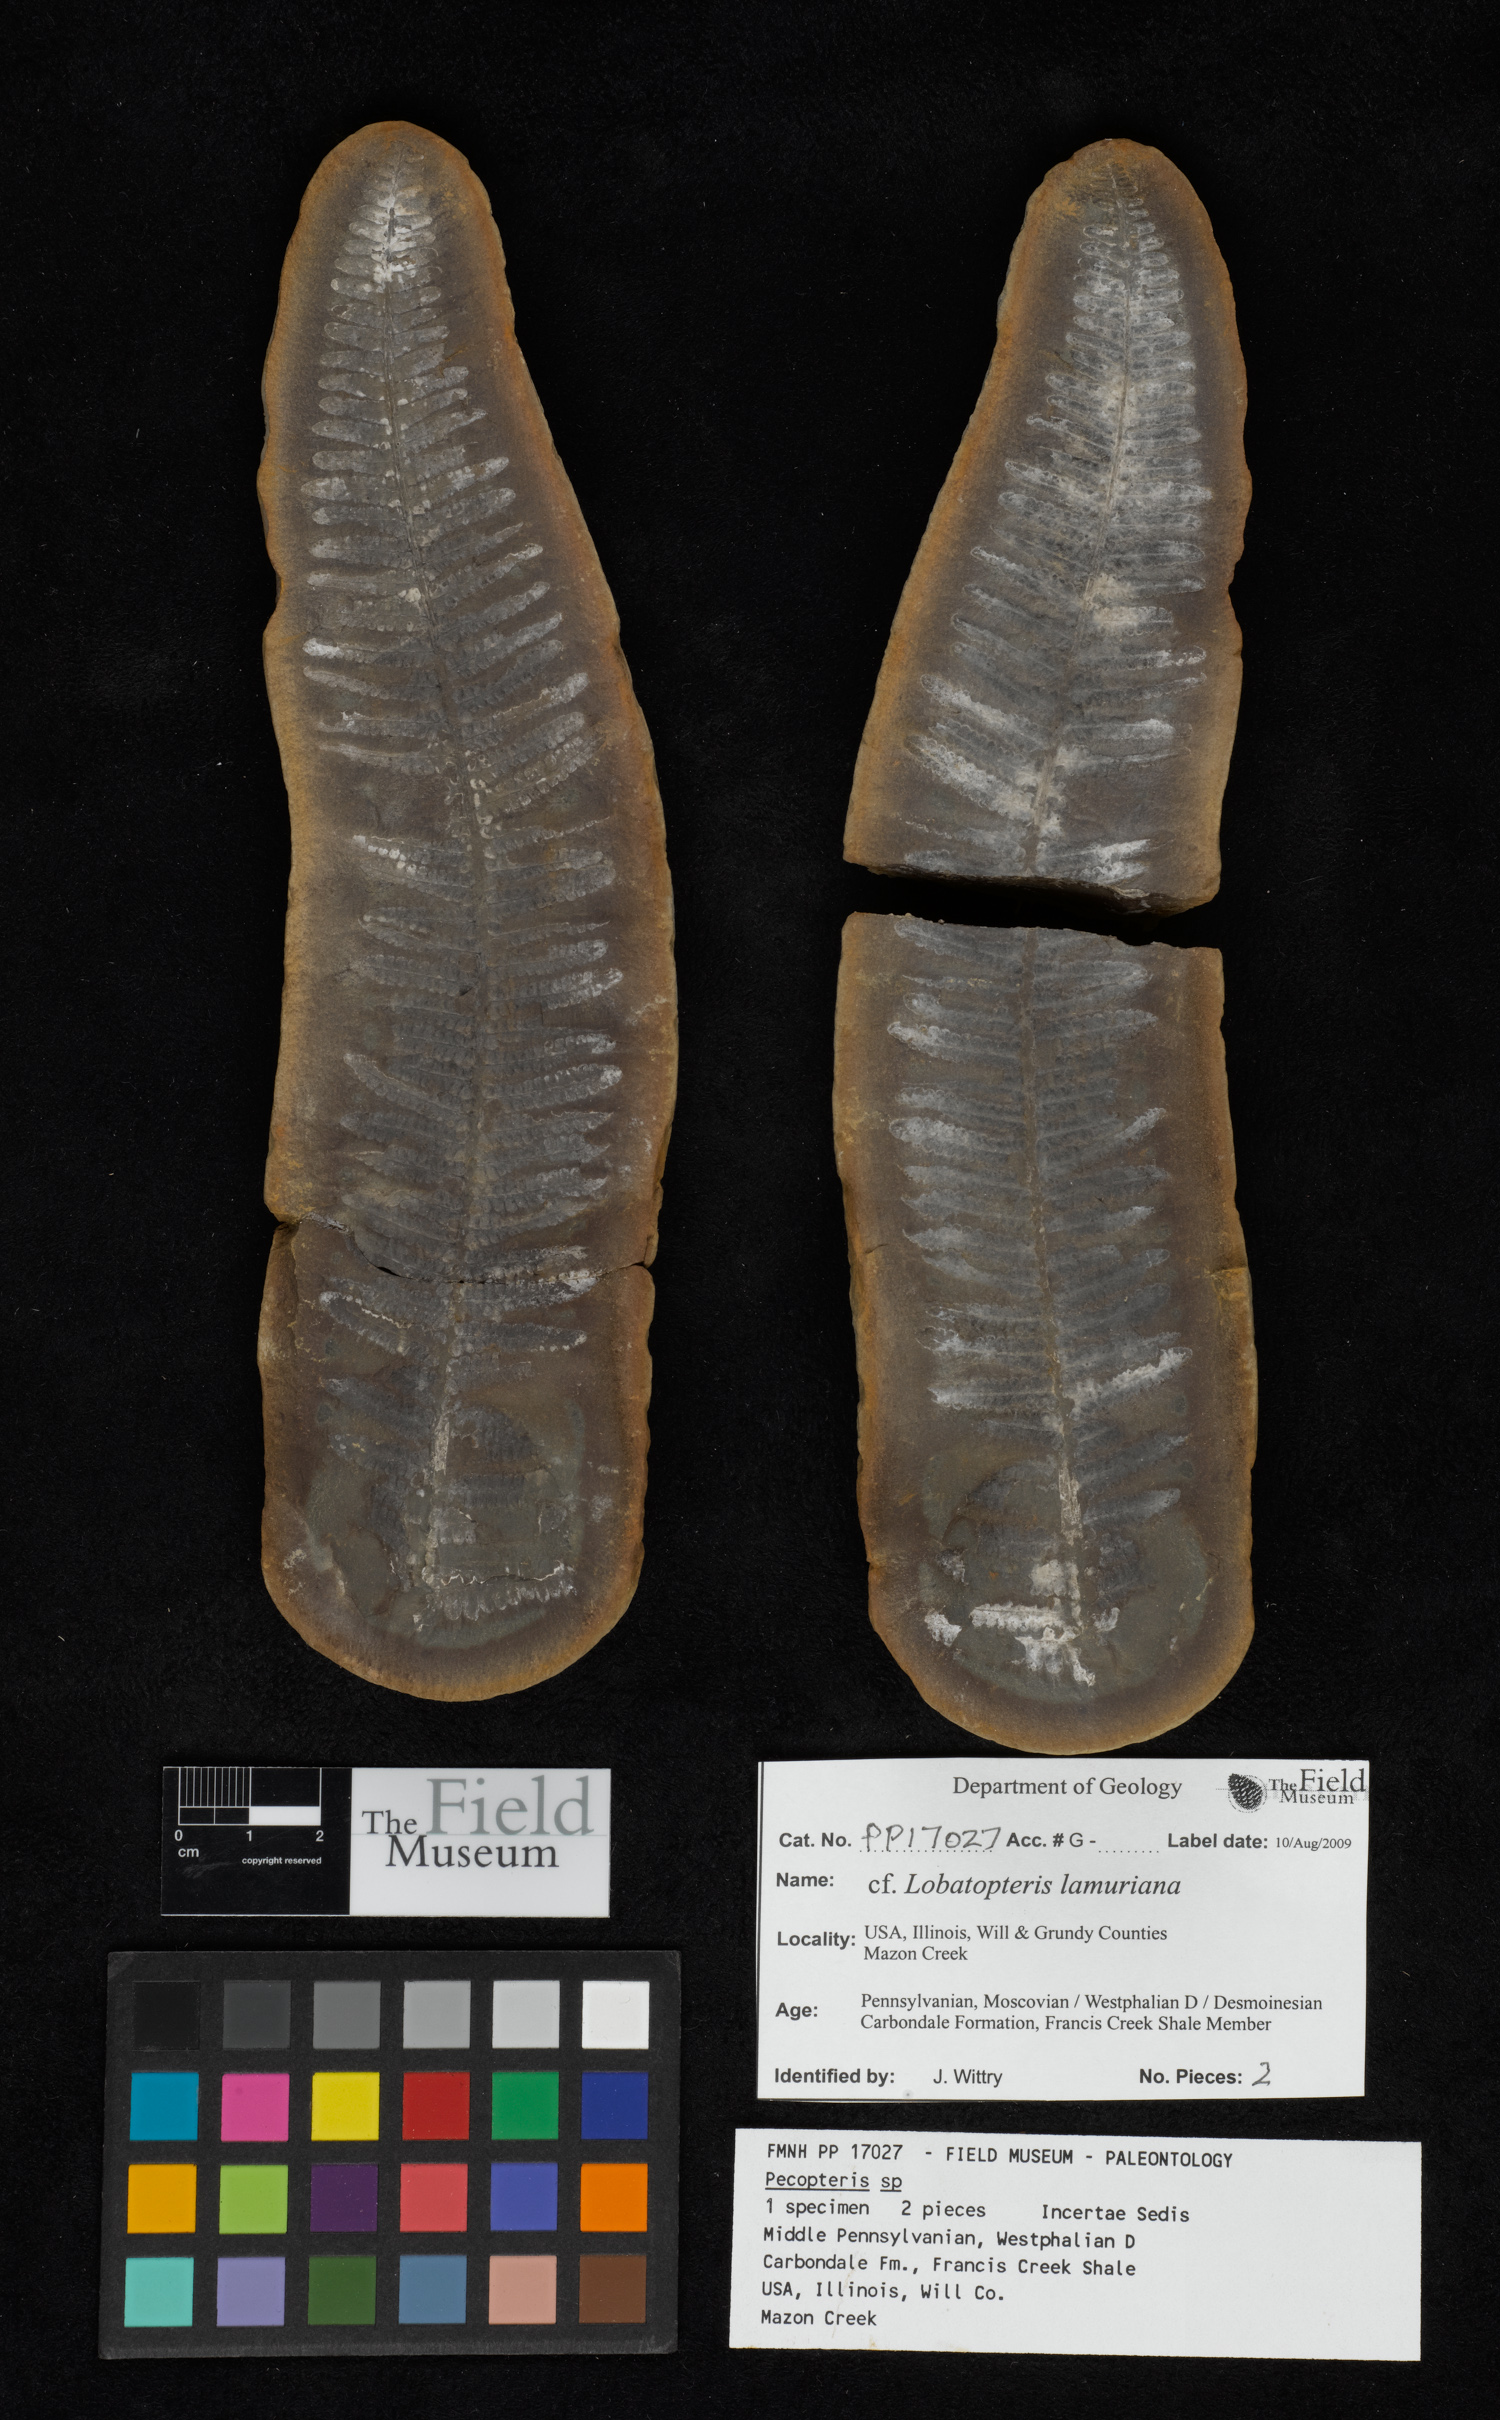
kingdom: Plantae
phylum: Tracheophyta
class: Polypodiopsida
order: Marattiales
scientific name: Marattiales
